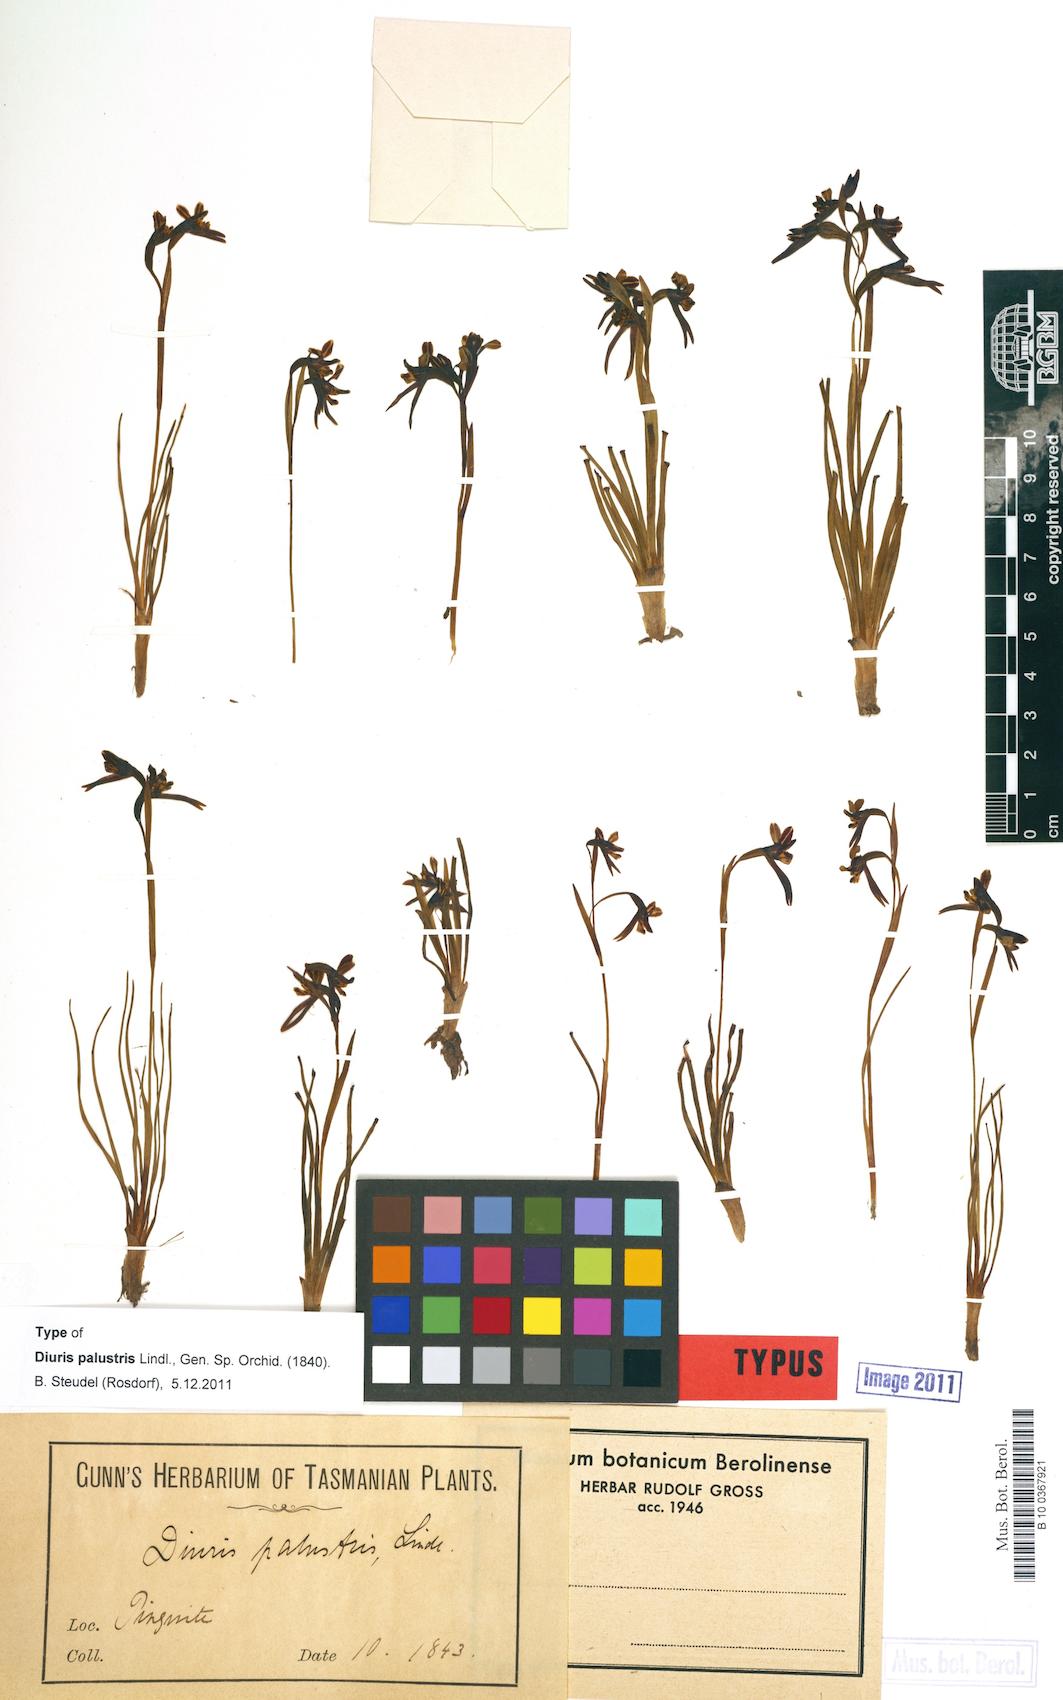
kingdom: Plantae
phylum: Tracheophyta
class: Liliopsida
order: Asparagales
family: Orchidaceae
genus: Diuris
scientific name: Diuris palustris
